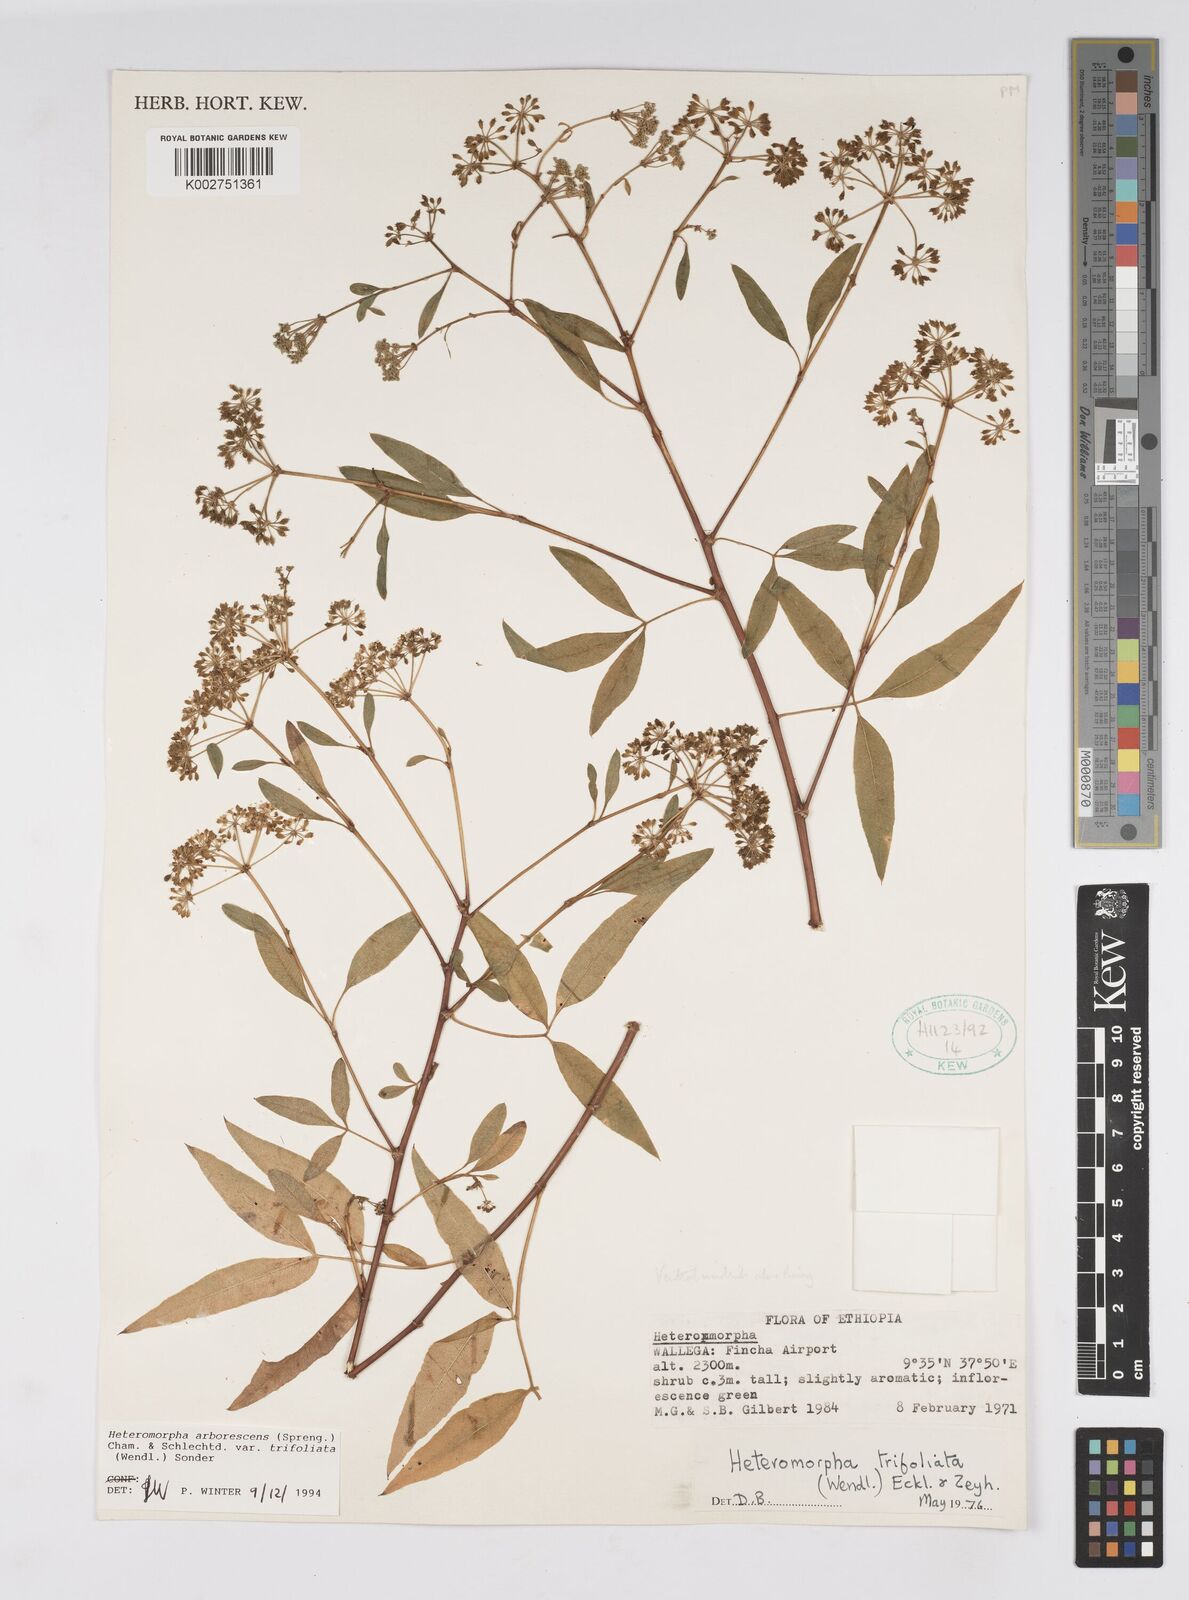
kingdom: Plantae
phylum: Tracheophyta
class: Magnoliopsida
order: Apiales
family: Apiaceae
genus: Heteromorpha
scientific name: Heteromorpha arborescens
